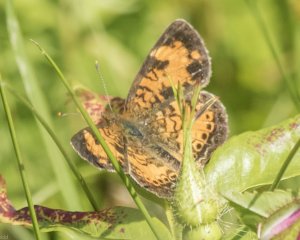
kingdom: Animalia
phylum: Arthropoda
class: Insecta
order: Lepidoptera
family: Nymphalidae
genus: Phyciodes
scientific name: Phyciodes tharos
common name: Northern Crescent
